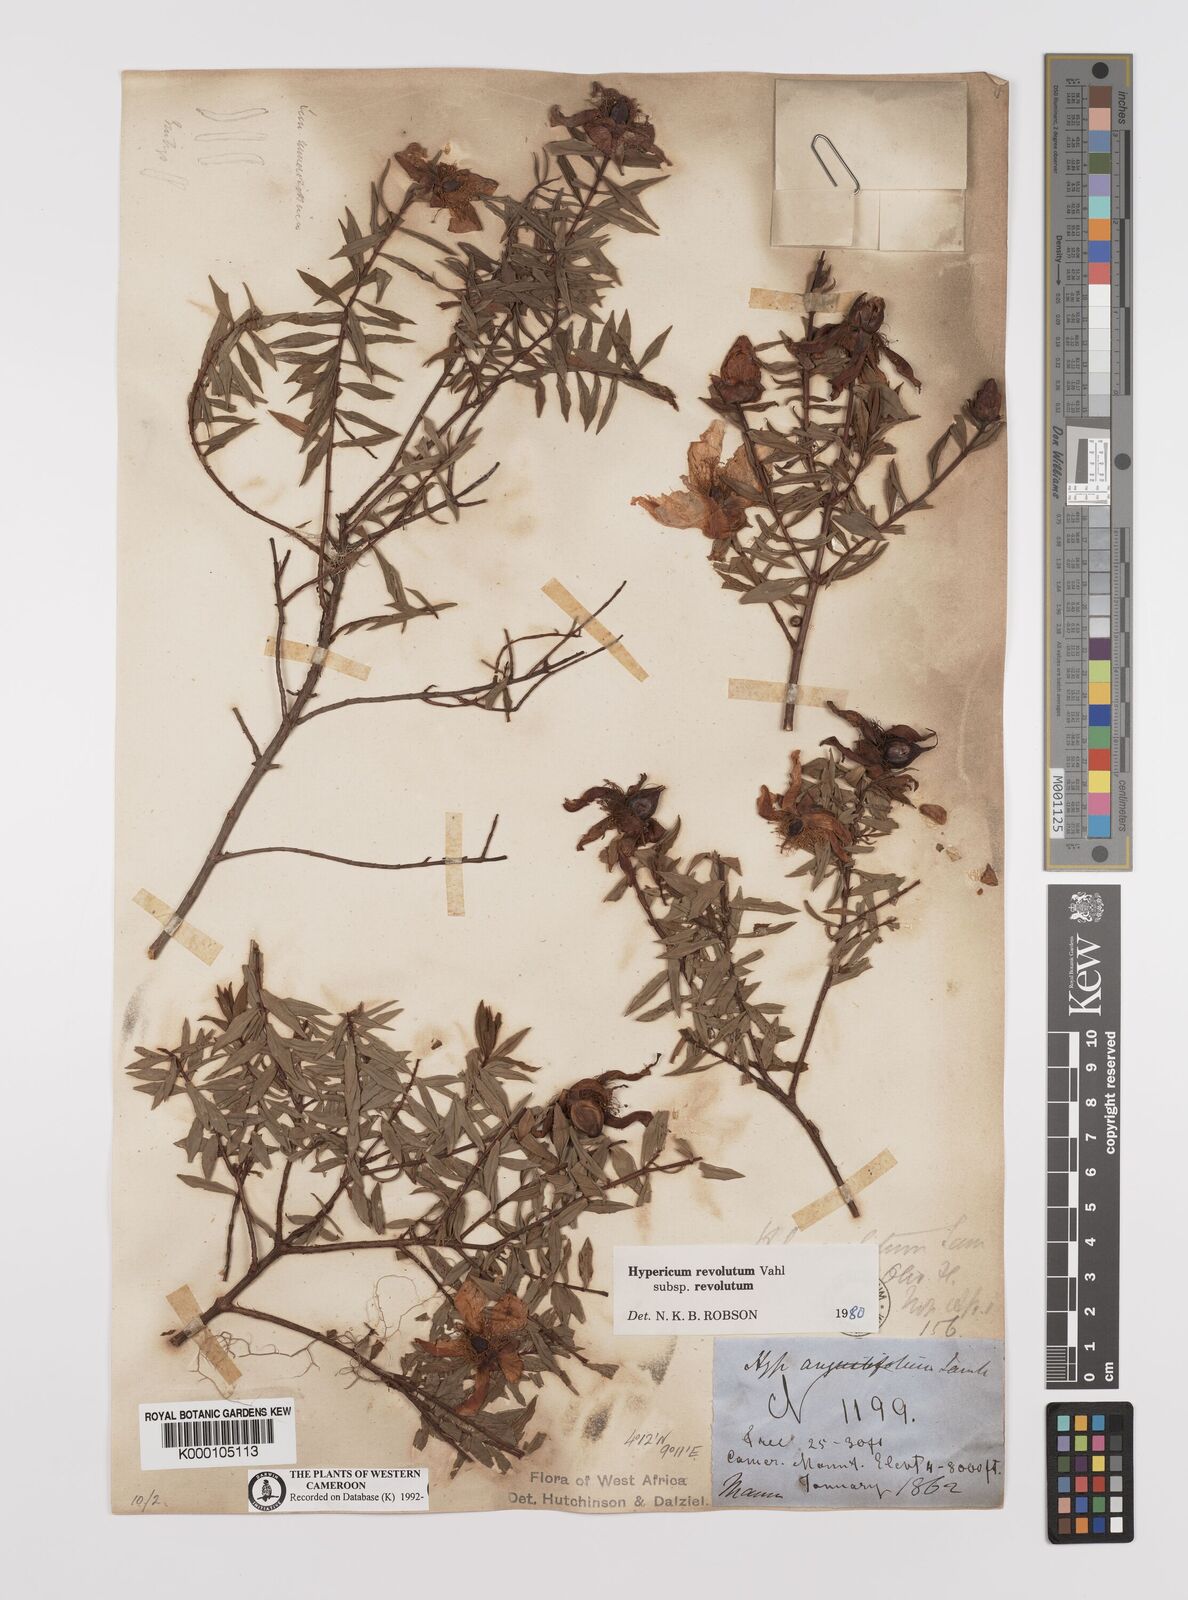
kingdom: Plantae
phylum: Tracheophyta
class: Magnoliopsida
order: Malpighiales
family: Hypericaceae
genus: Hypericum
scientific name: Hypericum revolutum
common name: Curry bush
